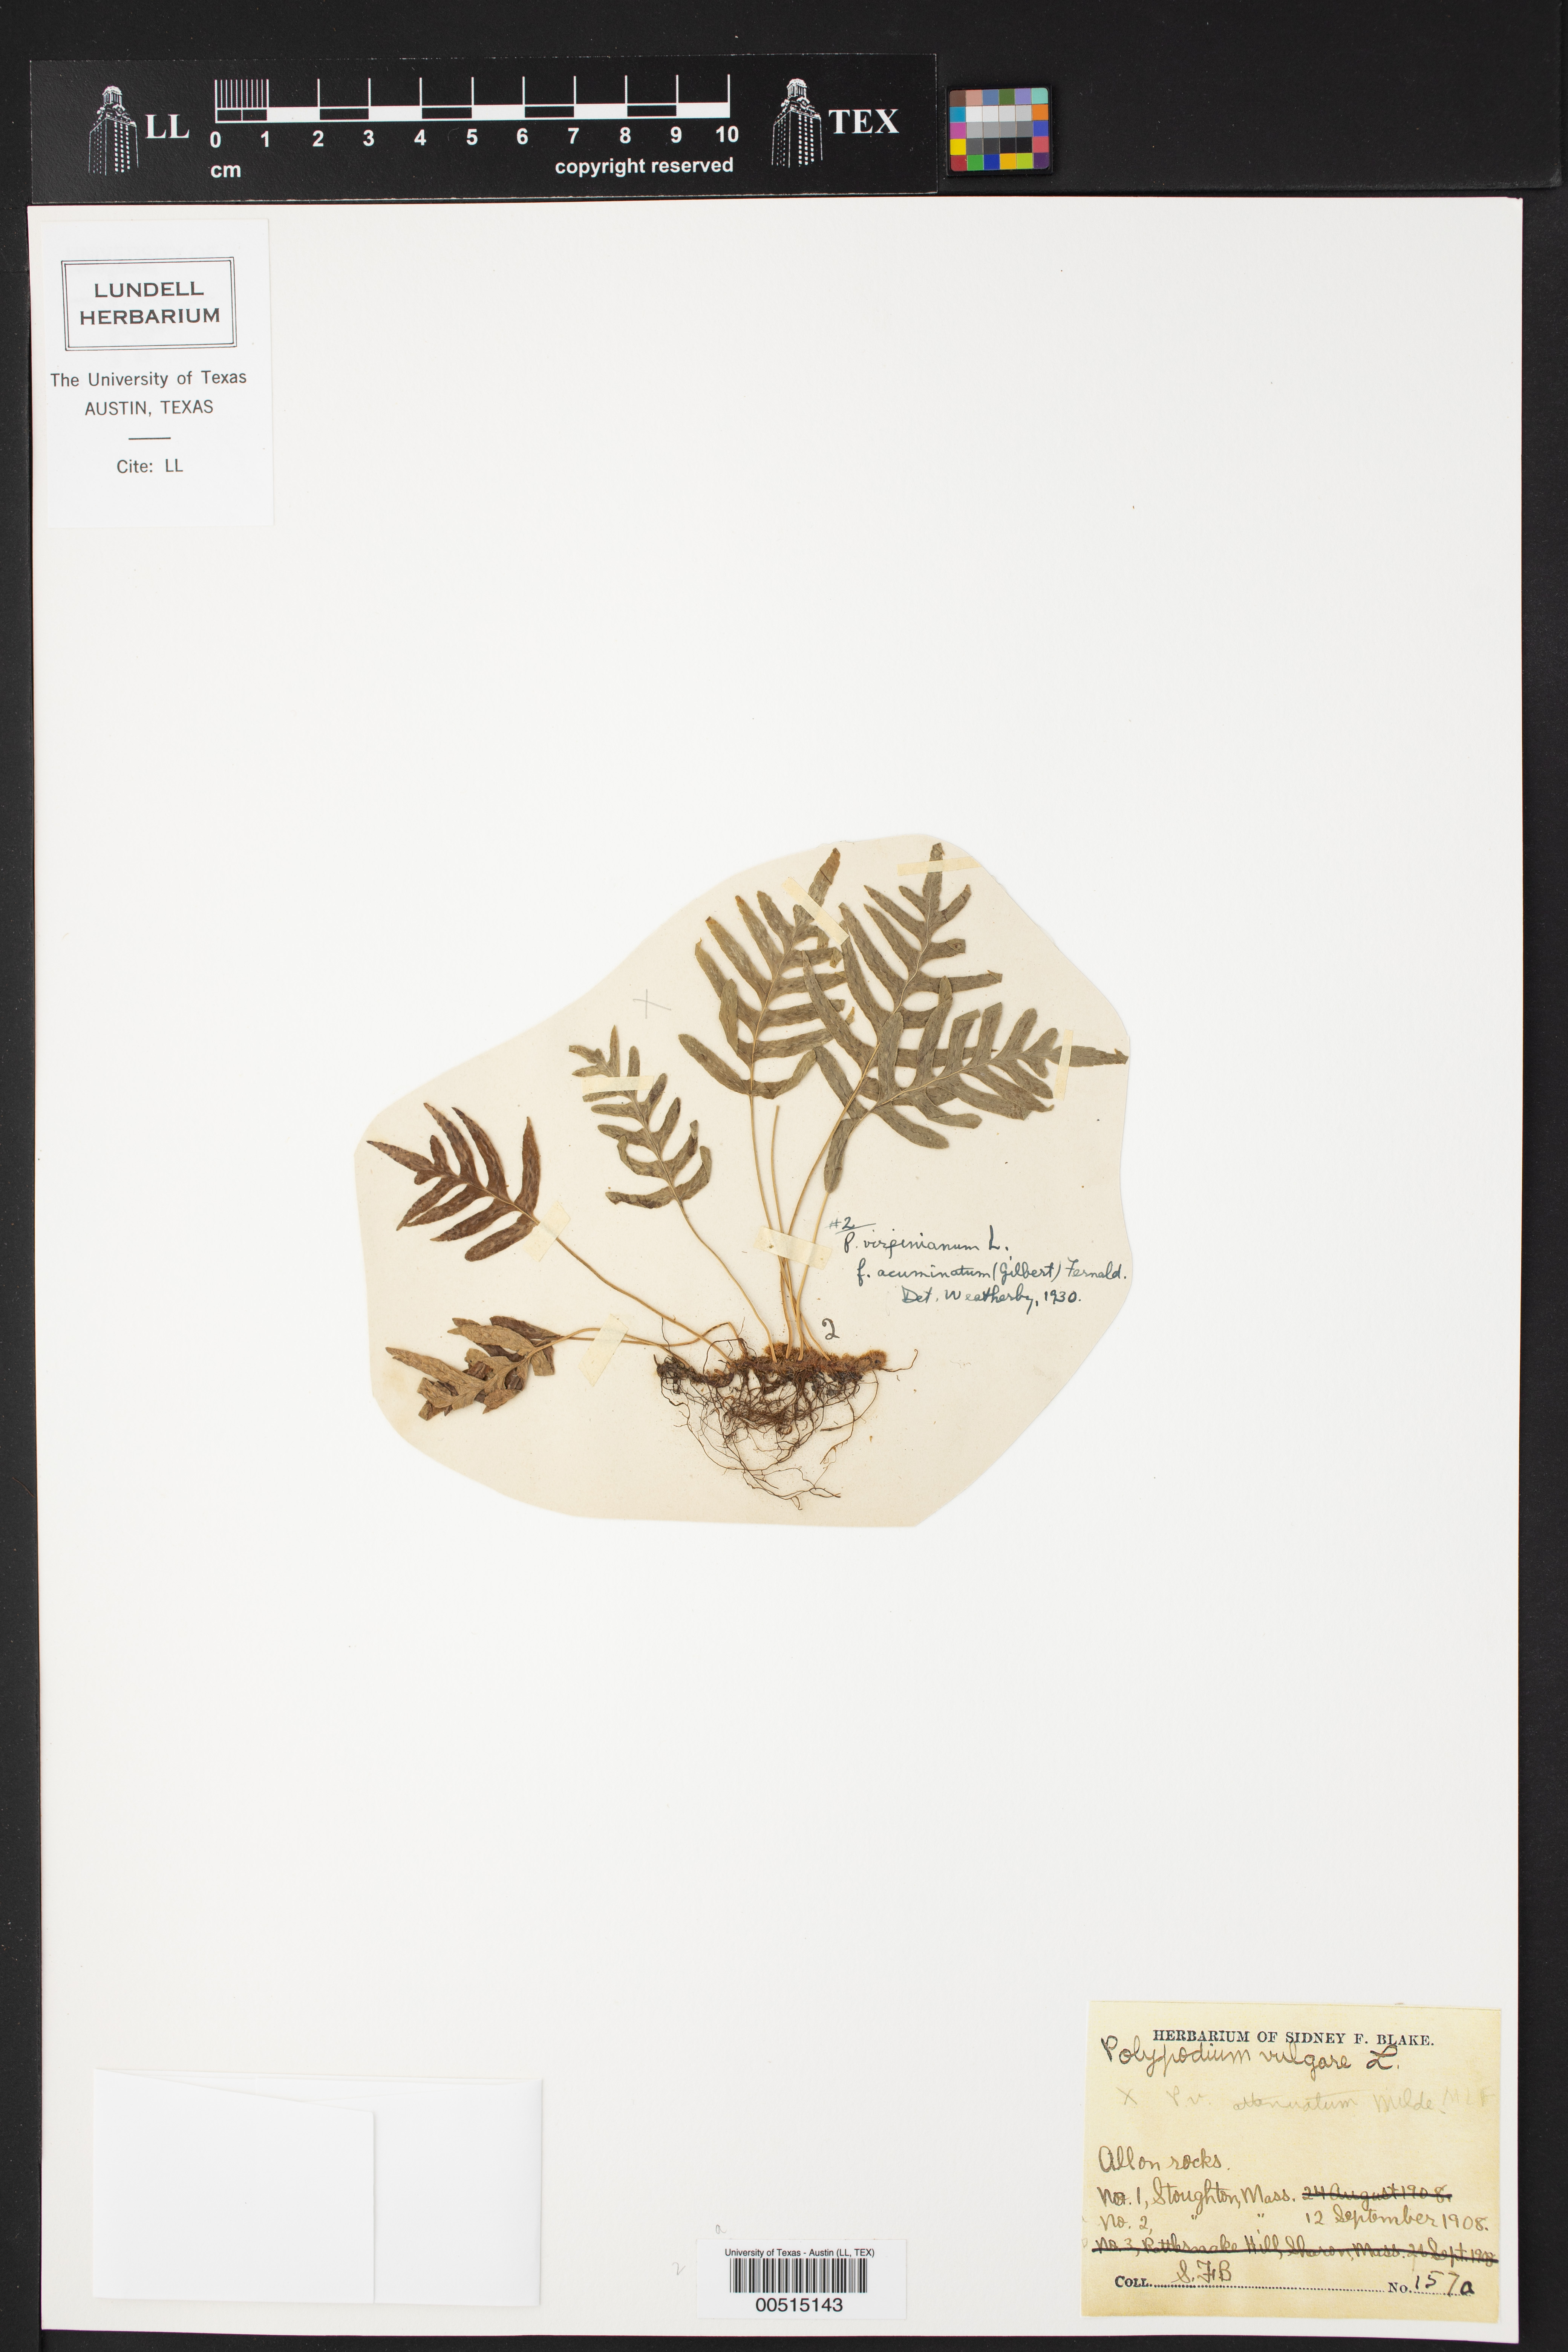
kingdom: Plantae
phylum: Tracheophyta
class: Polypodiopsida
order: Polypodiales
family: Polypodiaceae
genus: Polypodium
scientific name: Polypodium virginianum
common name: American wall fern
